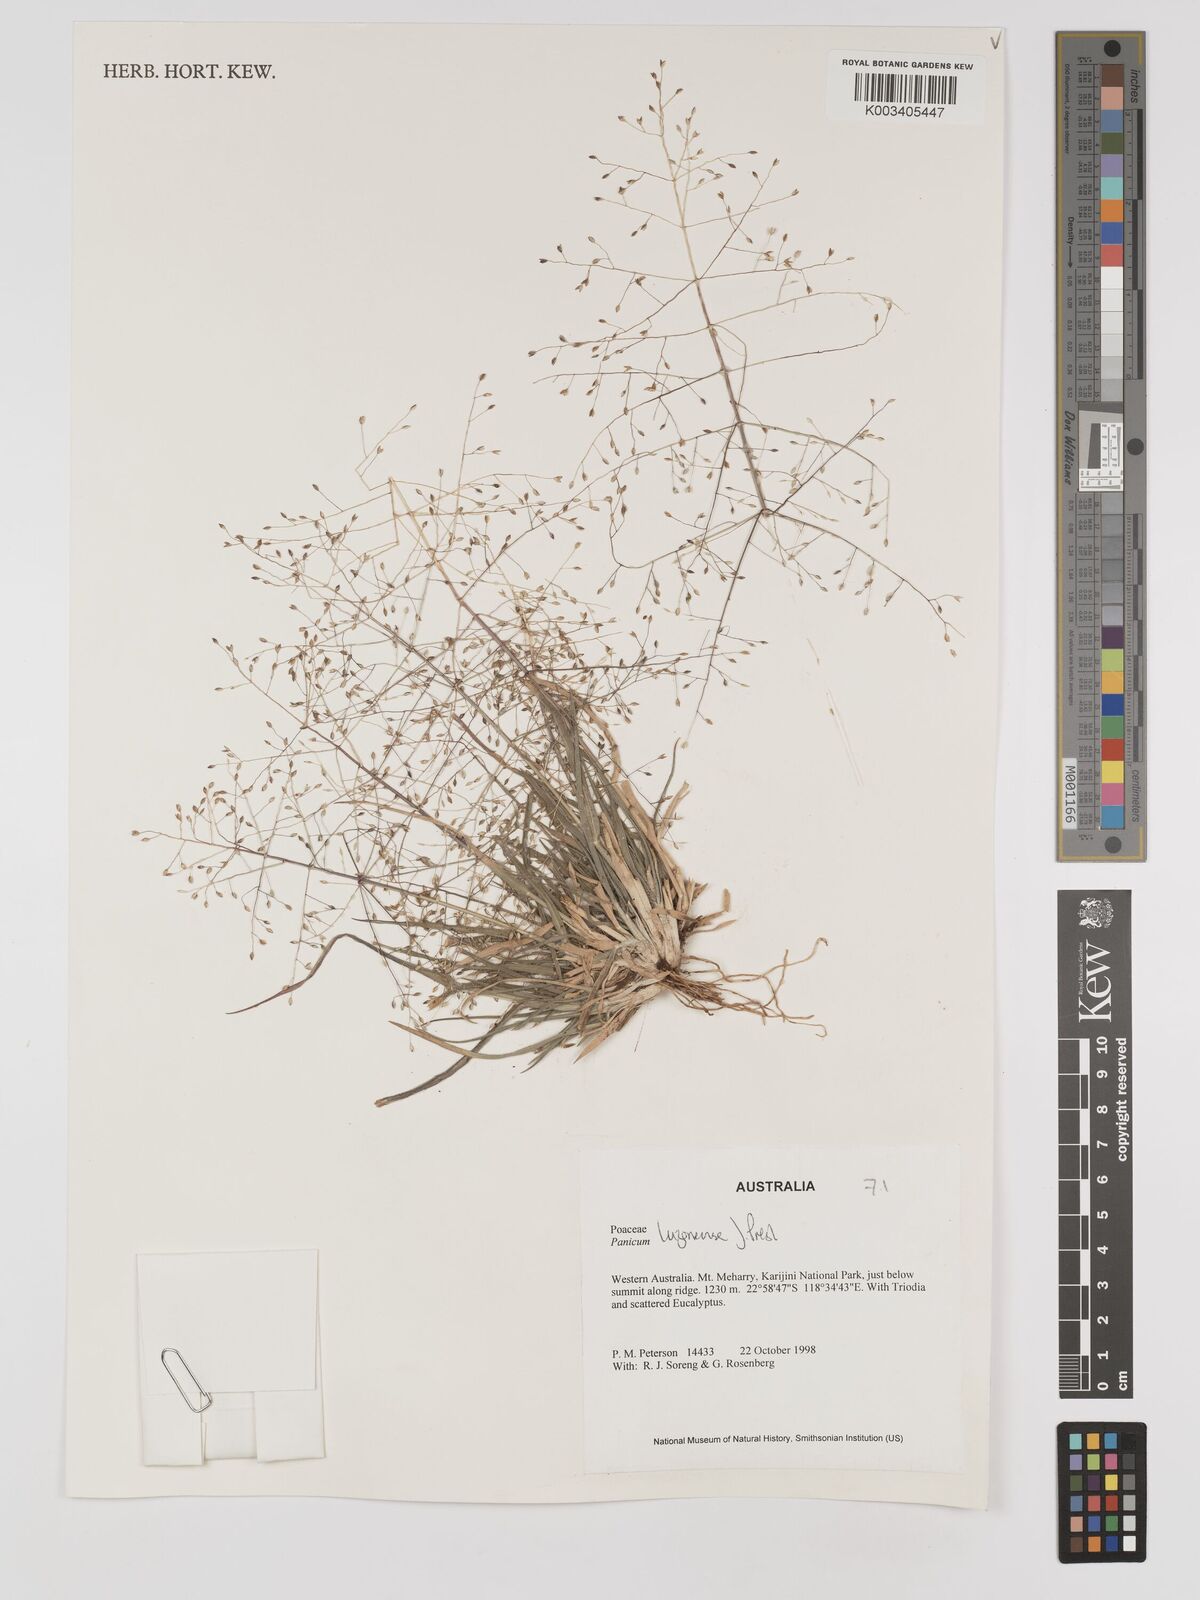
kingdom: Plantae
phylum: Tracheophyta
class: Liliopsida
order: Poales
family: Poaceae
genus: Panicum
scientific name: Panicum luzonense
